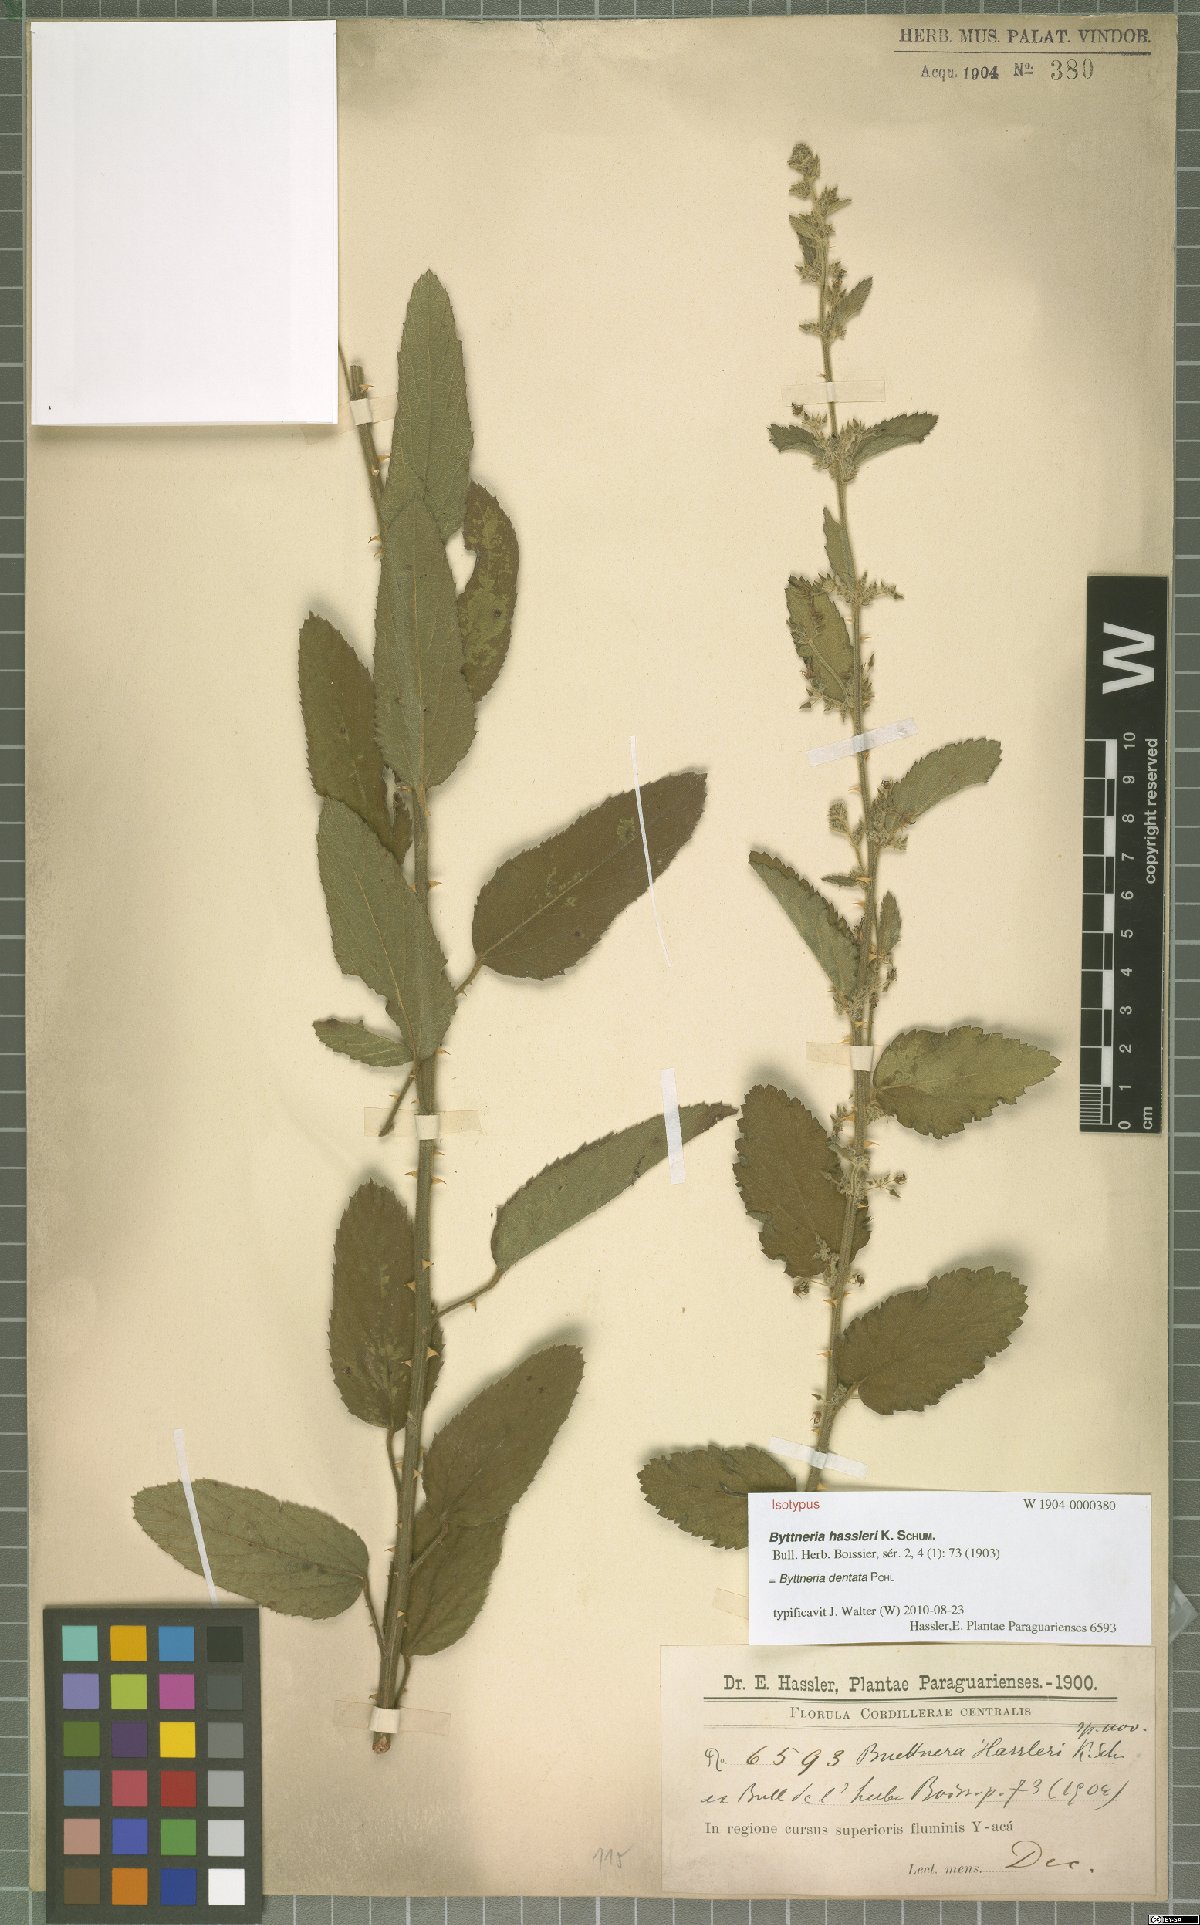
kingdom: Plantae
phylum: Tracheophyta
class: Magnoliopsida
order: Malvales
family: Malvaceae
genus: Byttneria
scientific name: Byttneria dentata
